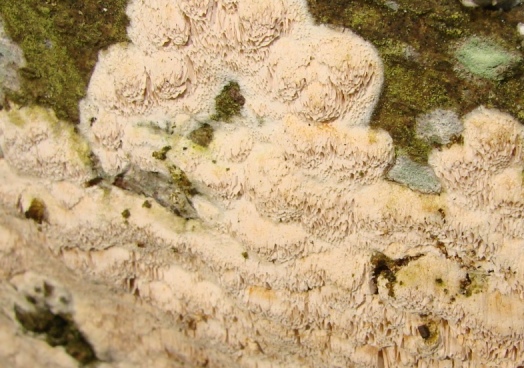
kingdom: Fungi
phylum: Basidiomycota
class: Agaricomycetes
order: Hymenochaetales
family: Schizoporaceae
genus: Xylodon
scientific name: Xylodon subtropicus
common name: labyrint-tandsvamp
